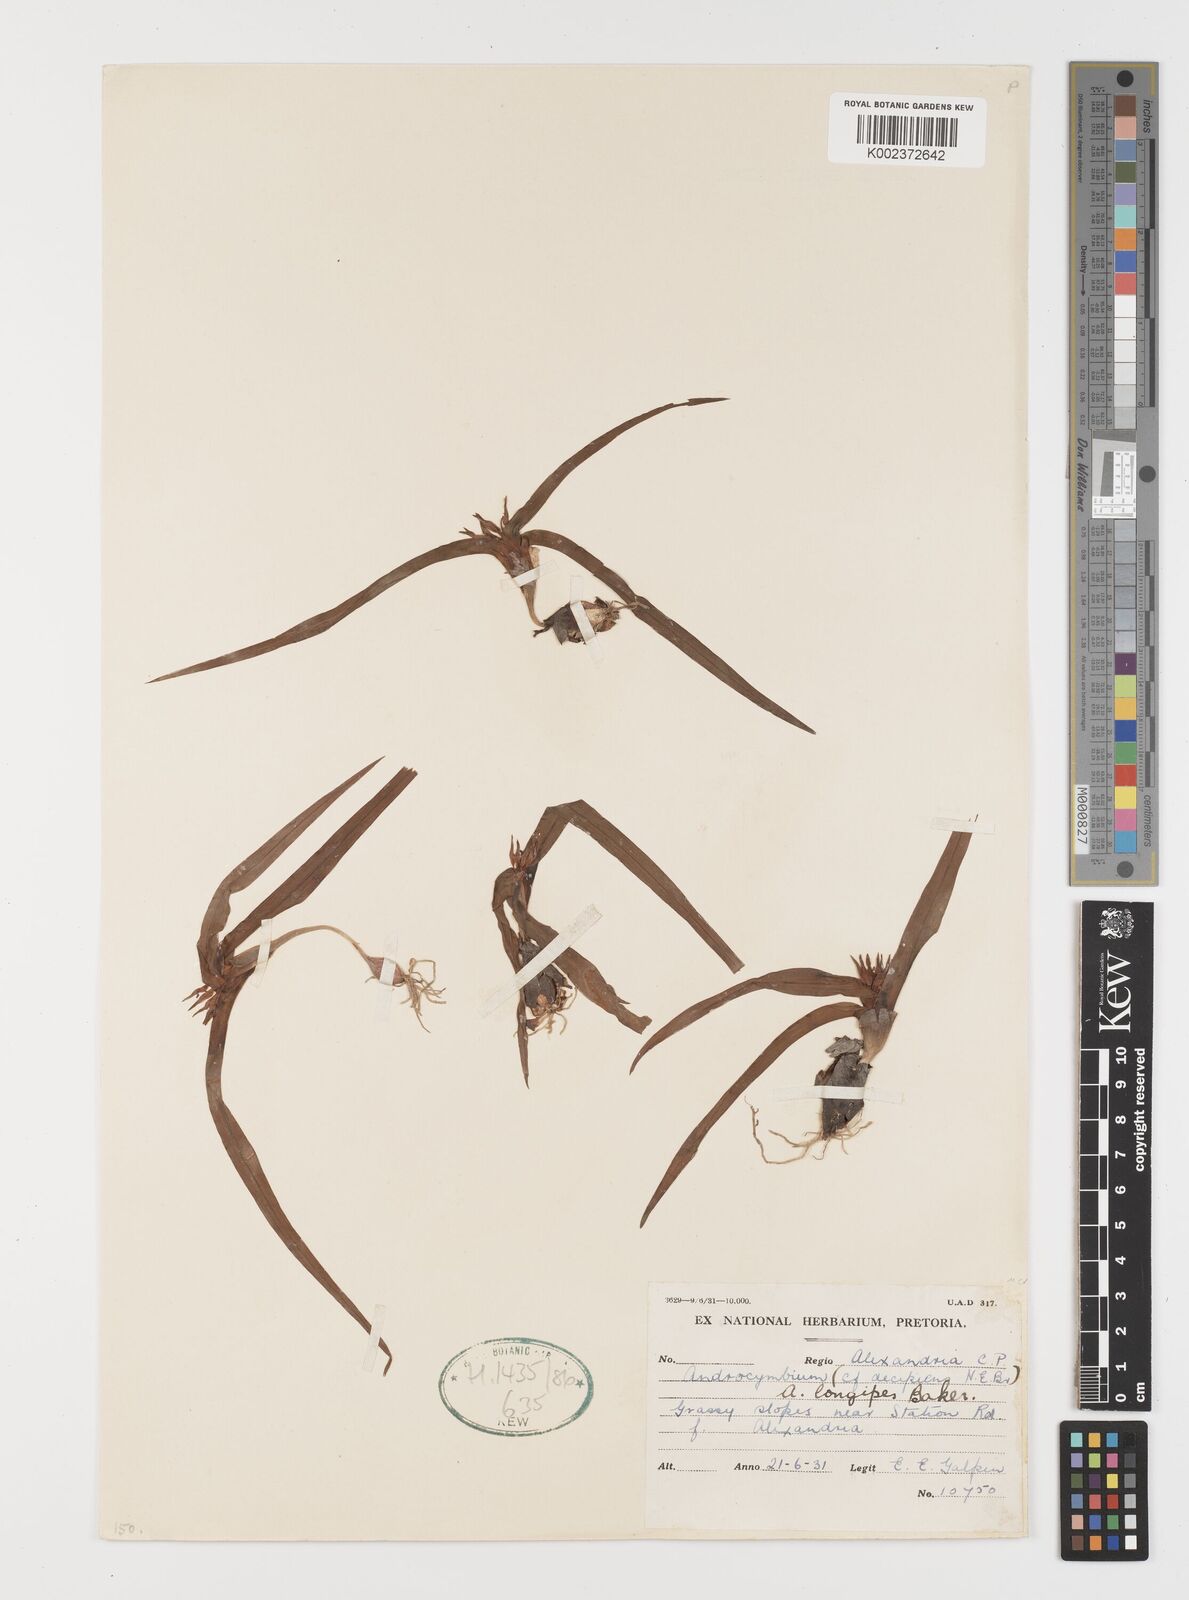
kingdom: Plantae
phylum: Tracheophyta
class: Liliopsida
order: Liliales
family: Colchicaceae
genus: Colchicum
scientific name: Colchicum longipes
